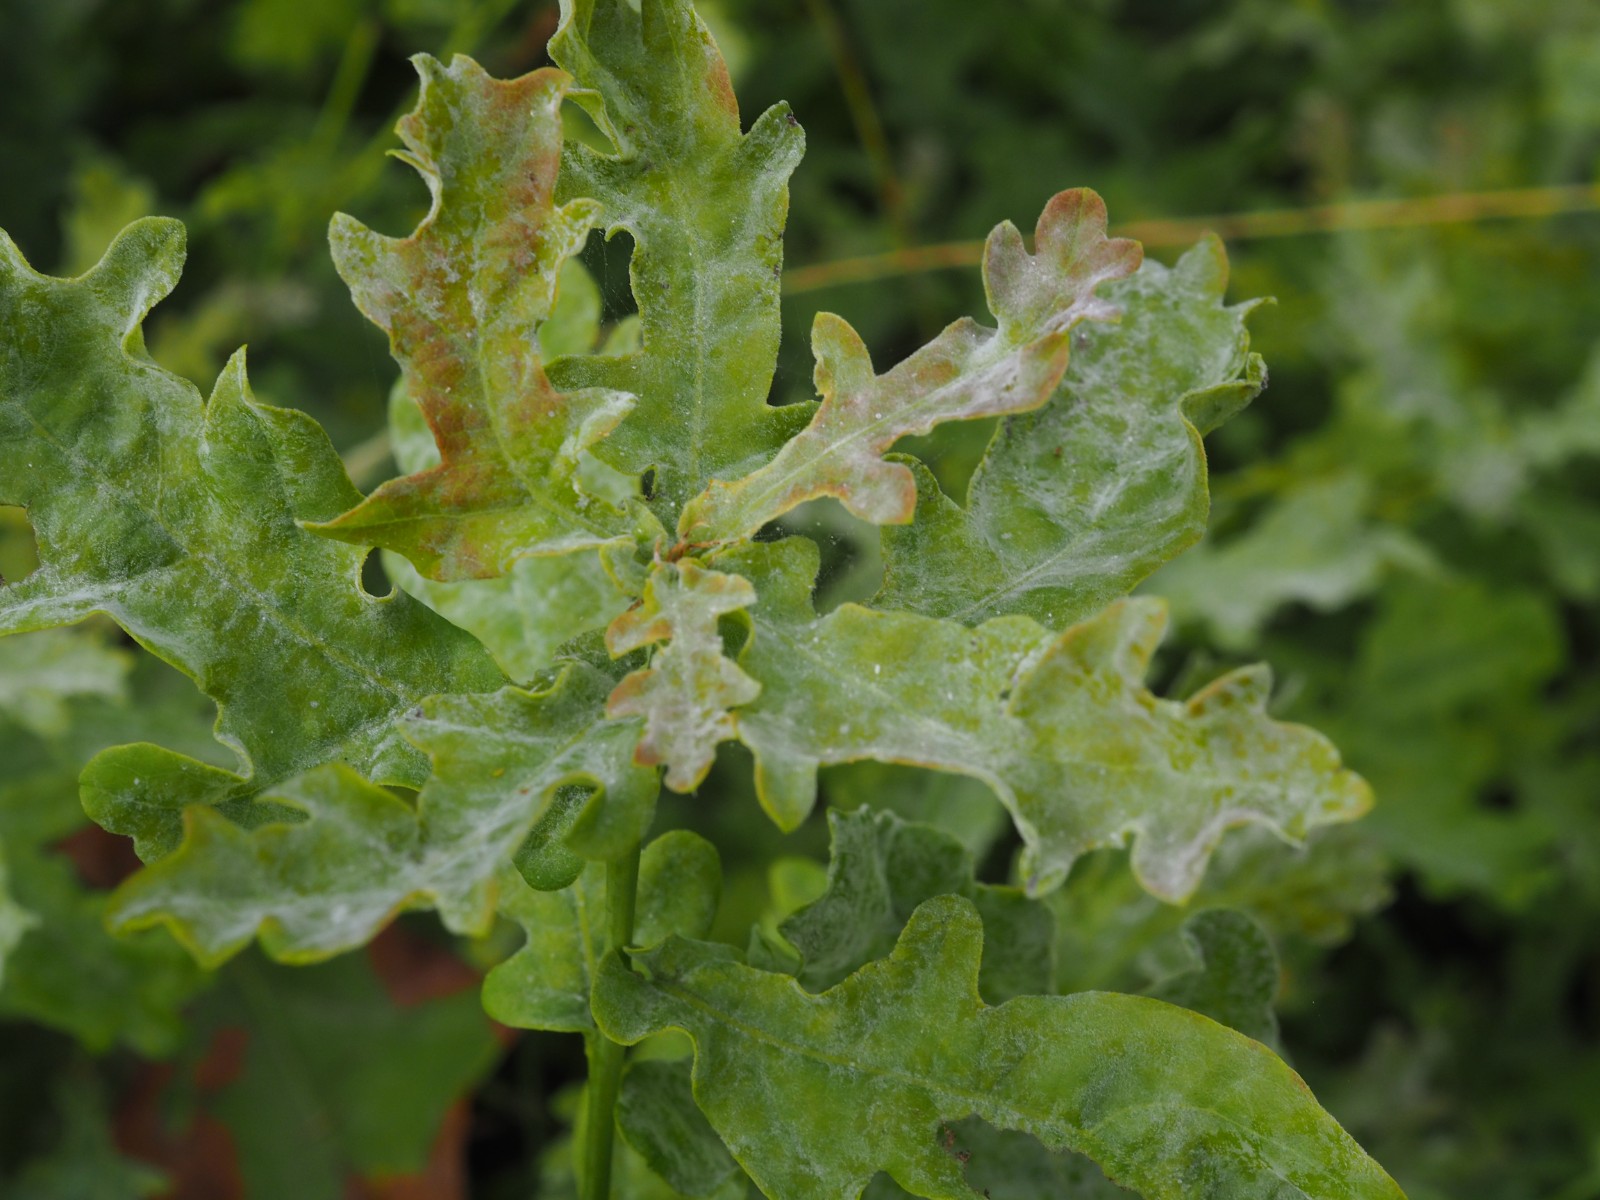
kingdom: Fungi
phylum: Ascomycota
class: Leotiomycetes
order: Helotiales
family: Erysiphaceae
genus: Erysiphe
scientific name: Erysiphe alphitoides
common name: ege-meldug
